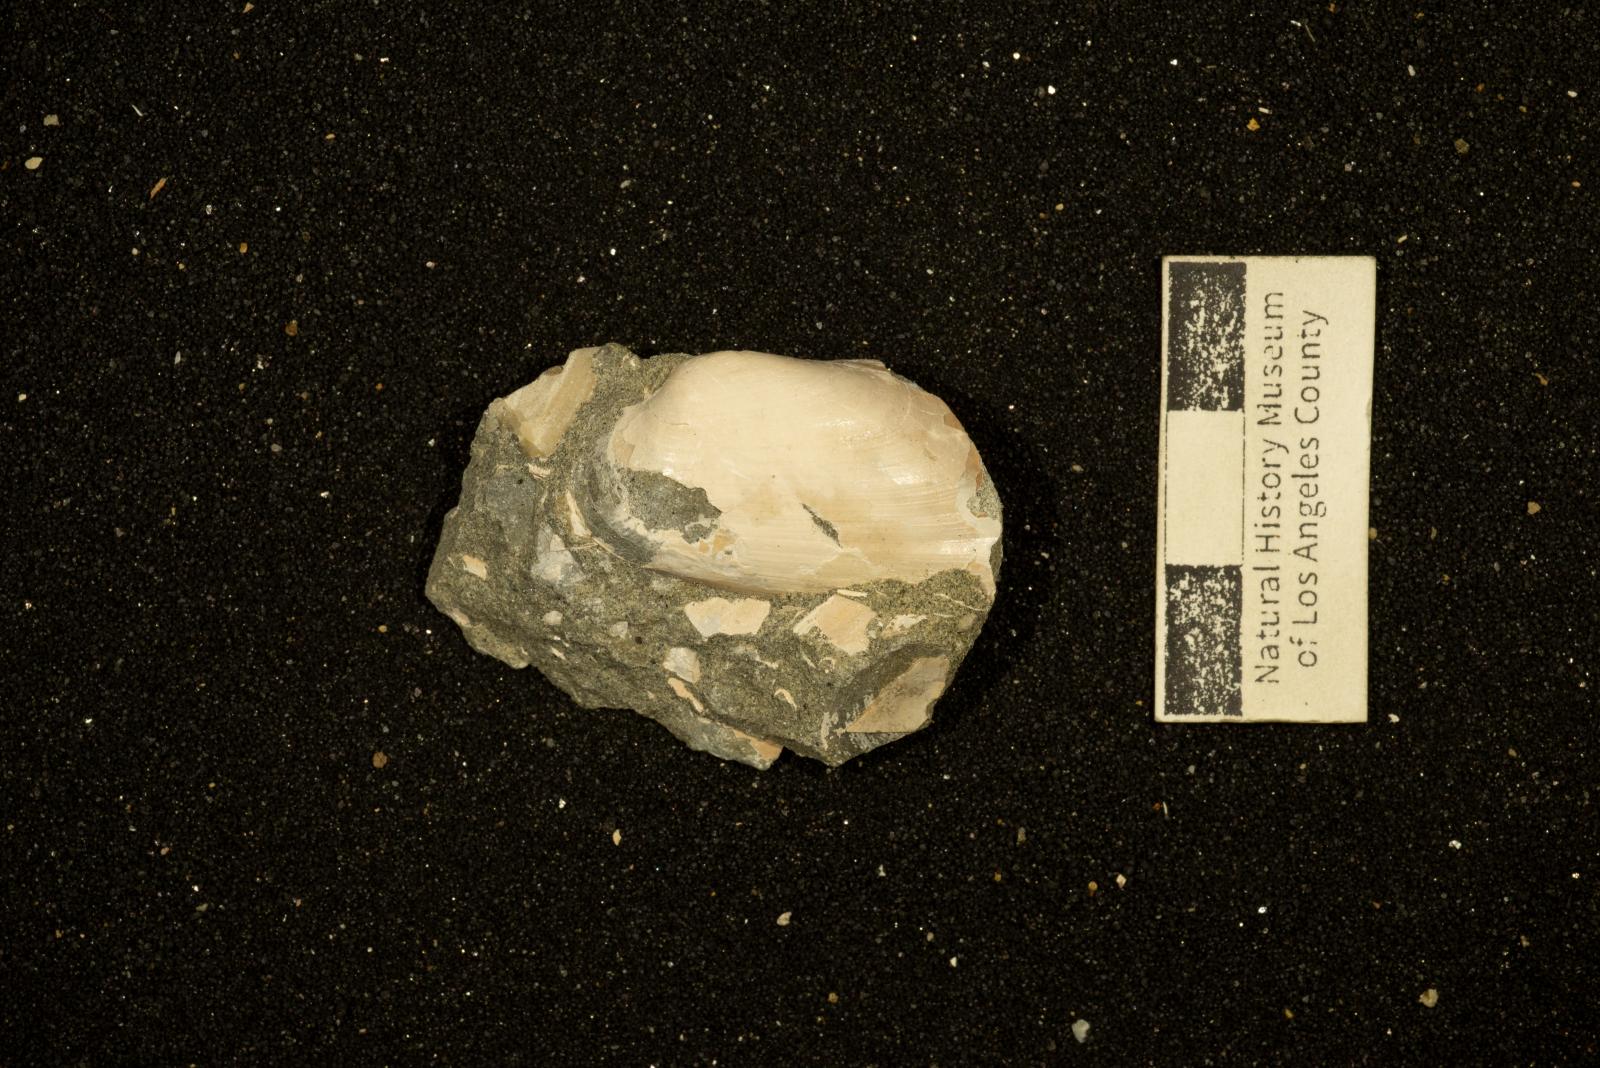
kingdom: Animalia
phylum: Mollusca
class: Bivalvia
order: Mytilida
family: Mytilidae
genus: Modiolus
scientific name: Modiolus
